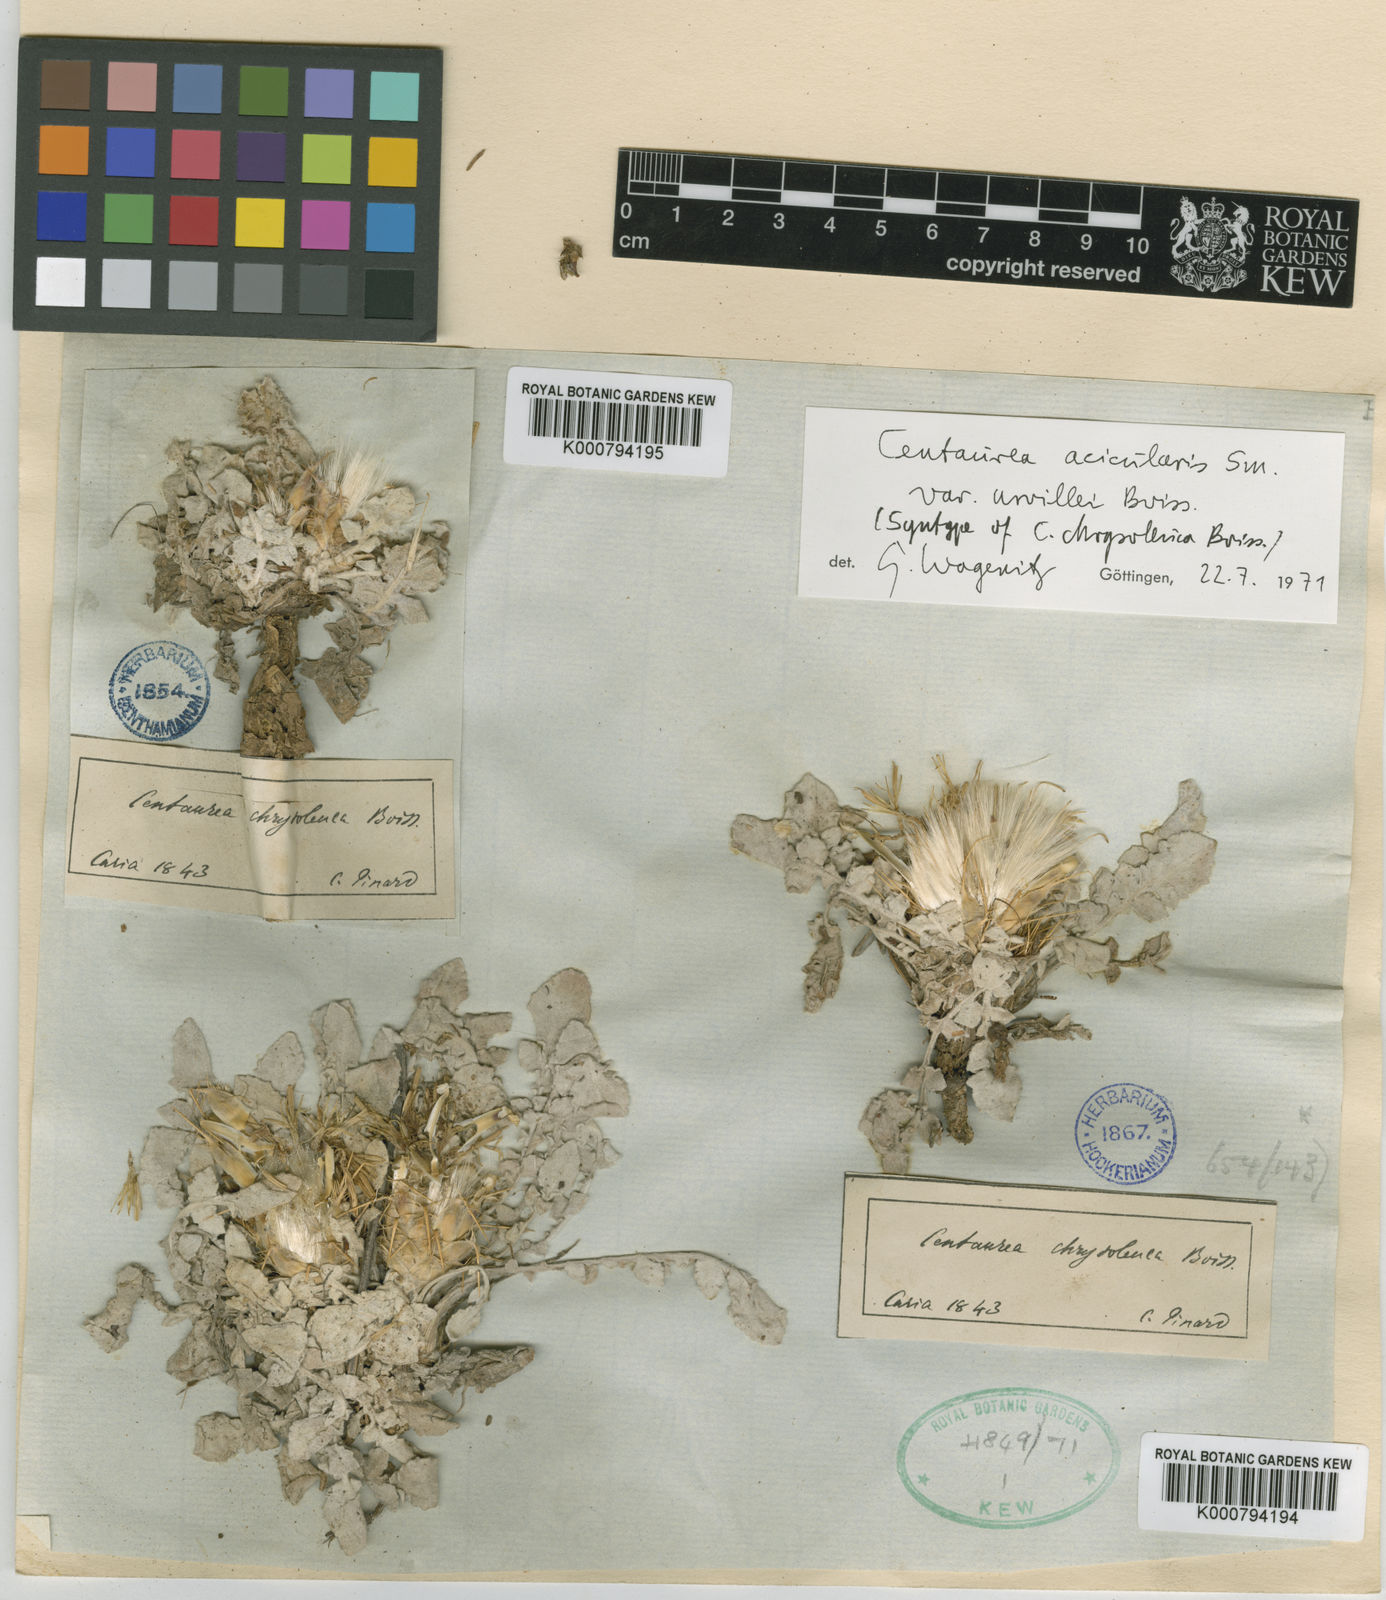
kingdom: Plantae
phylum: Tracheophyta
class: Magnoliopsida
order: Asterales
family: Asteraceae
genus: Centaurea
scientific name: Centaurea acicularis
